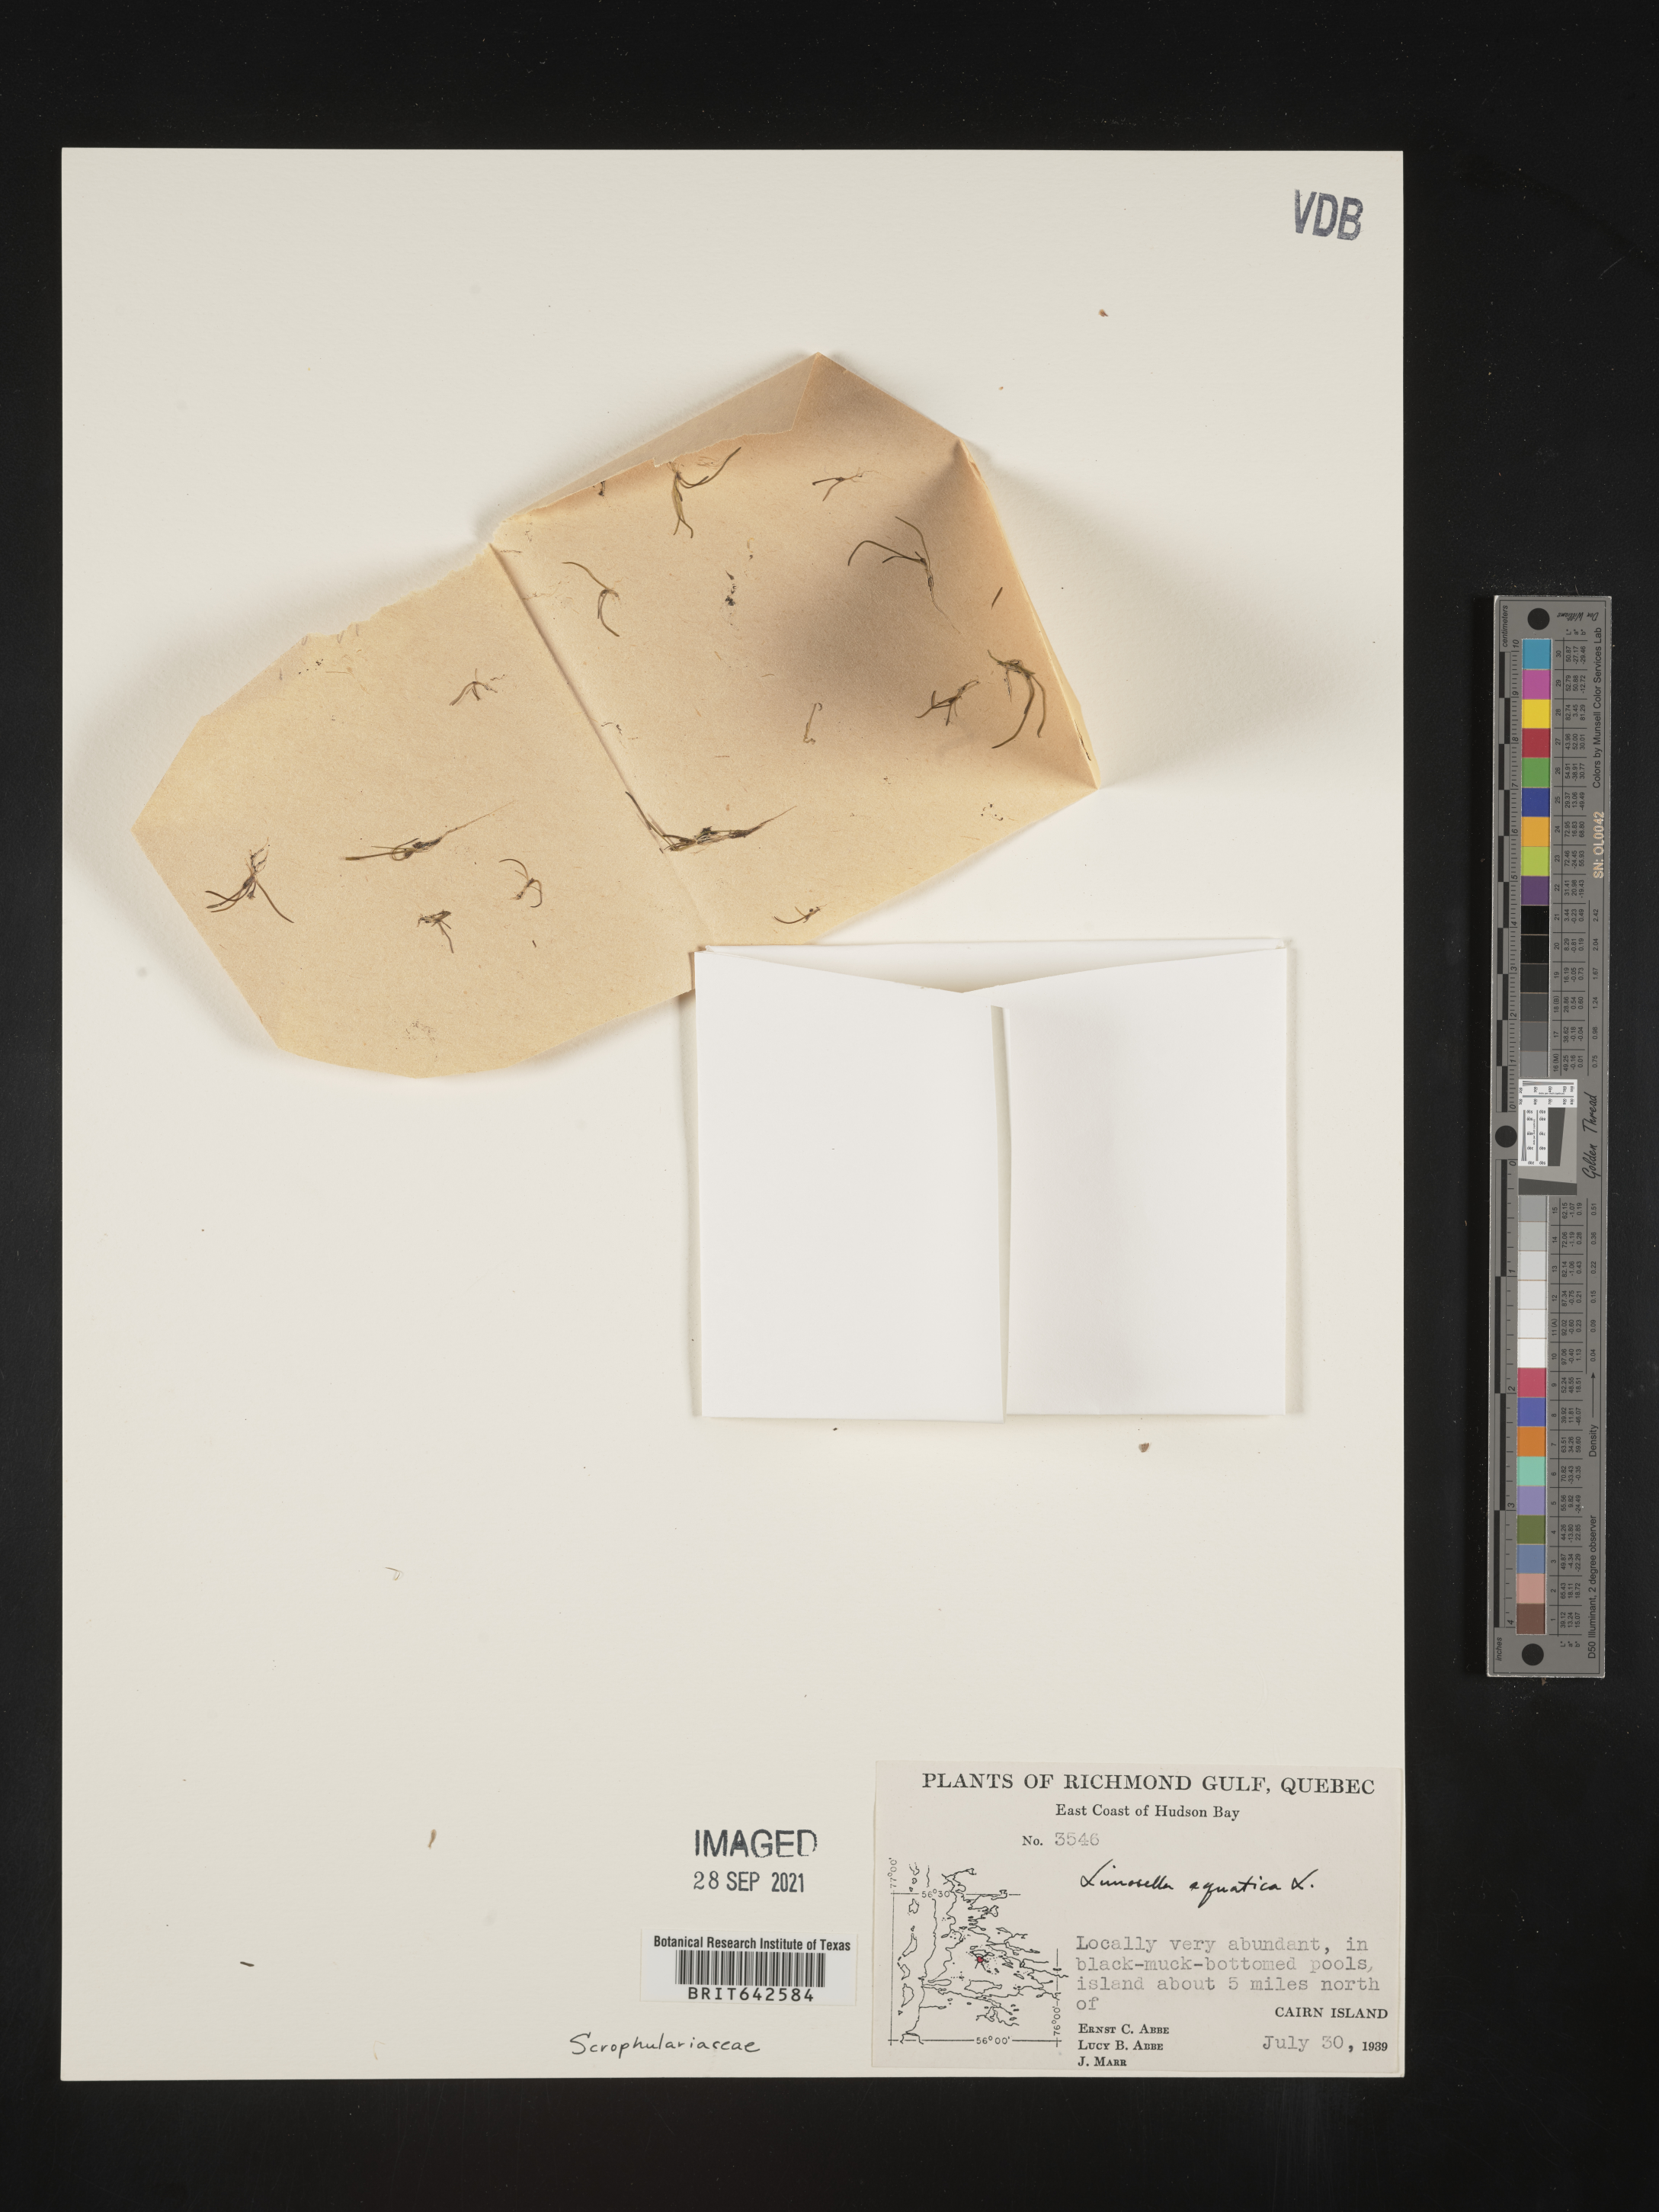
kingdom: Plantae
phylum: Tracheophyta
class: Magnoliopsida
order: Lamiales
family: Scrophulariaceae
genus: Limosella
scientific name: Limosella
